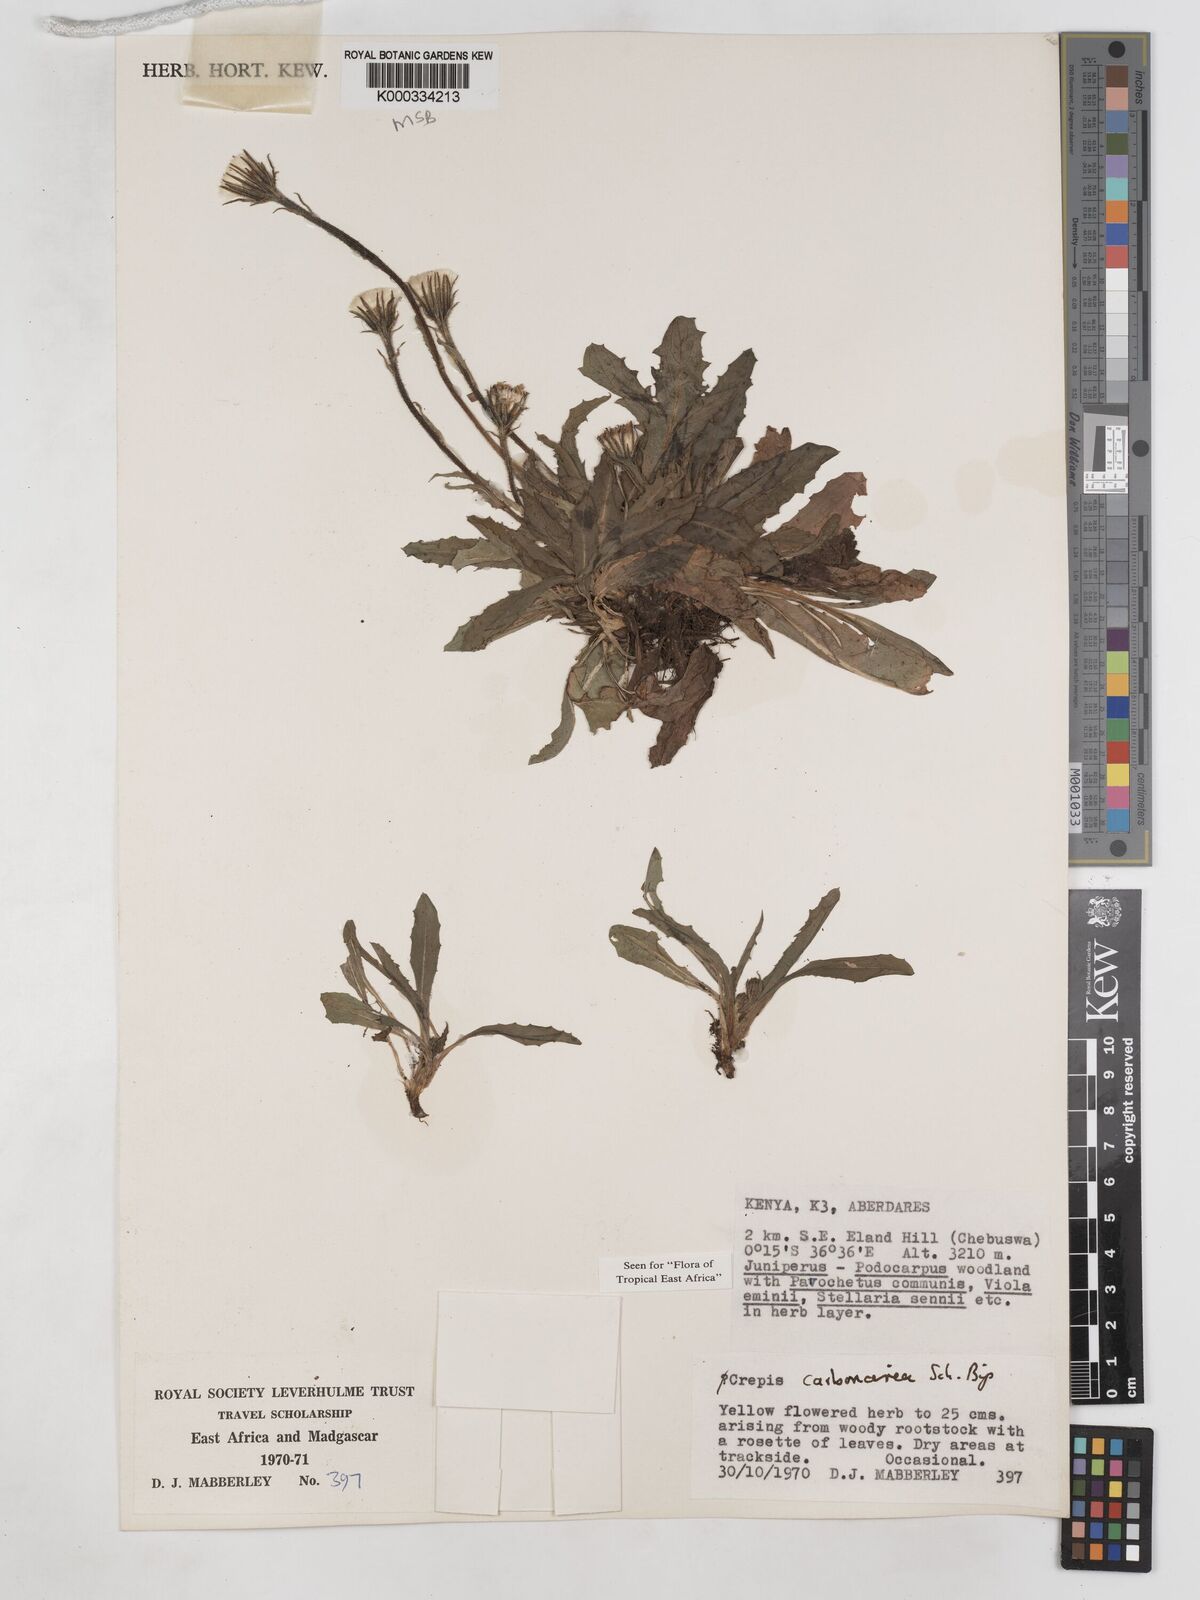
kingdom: Plantae
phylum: Tracheophyta
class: Magnoliopsida
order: Asterales
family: Asteraceae
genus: Crepis
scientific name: Crepis carbonaria
